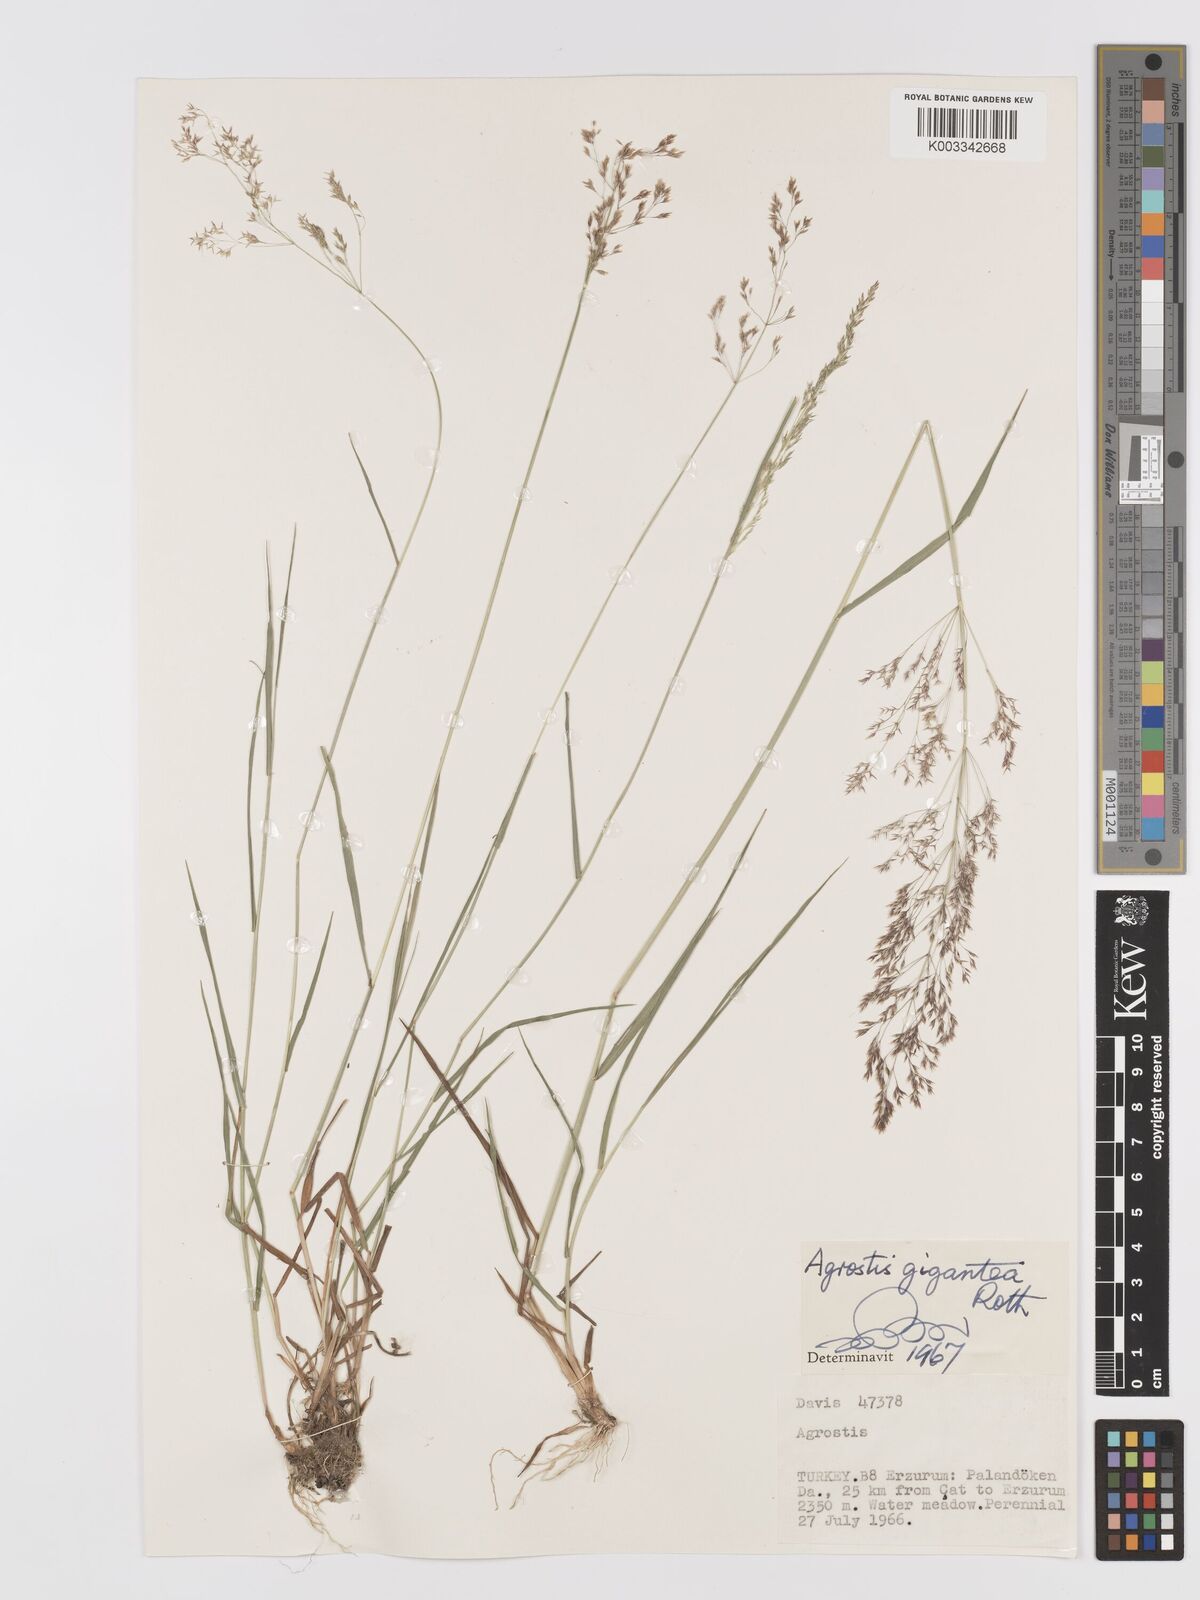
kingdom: Plantae
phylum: Tracheophyta
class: Liliopsida
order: Poales
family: Poaceae
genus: Agrostis
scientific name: Agrostis gigantea
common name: Black bent
